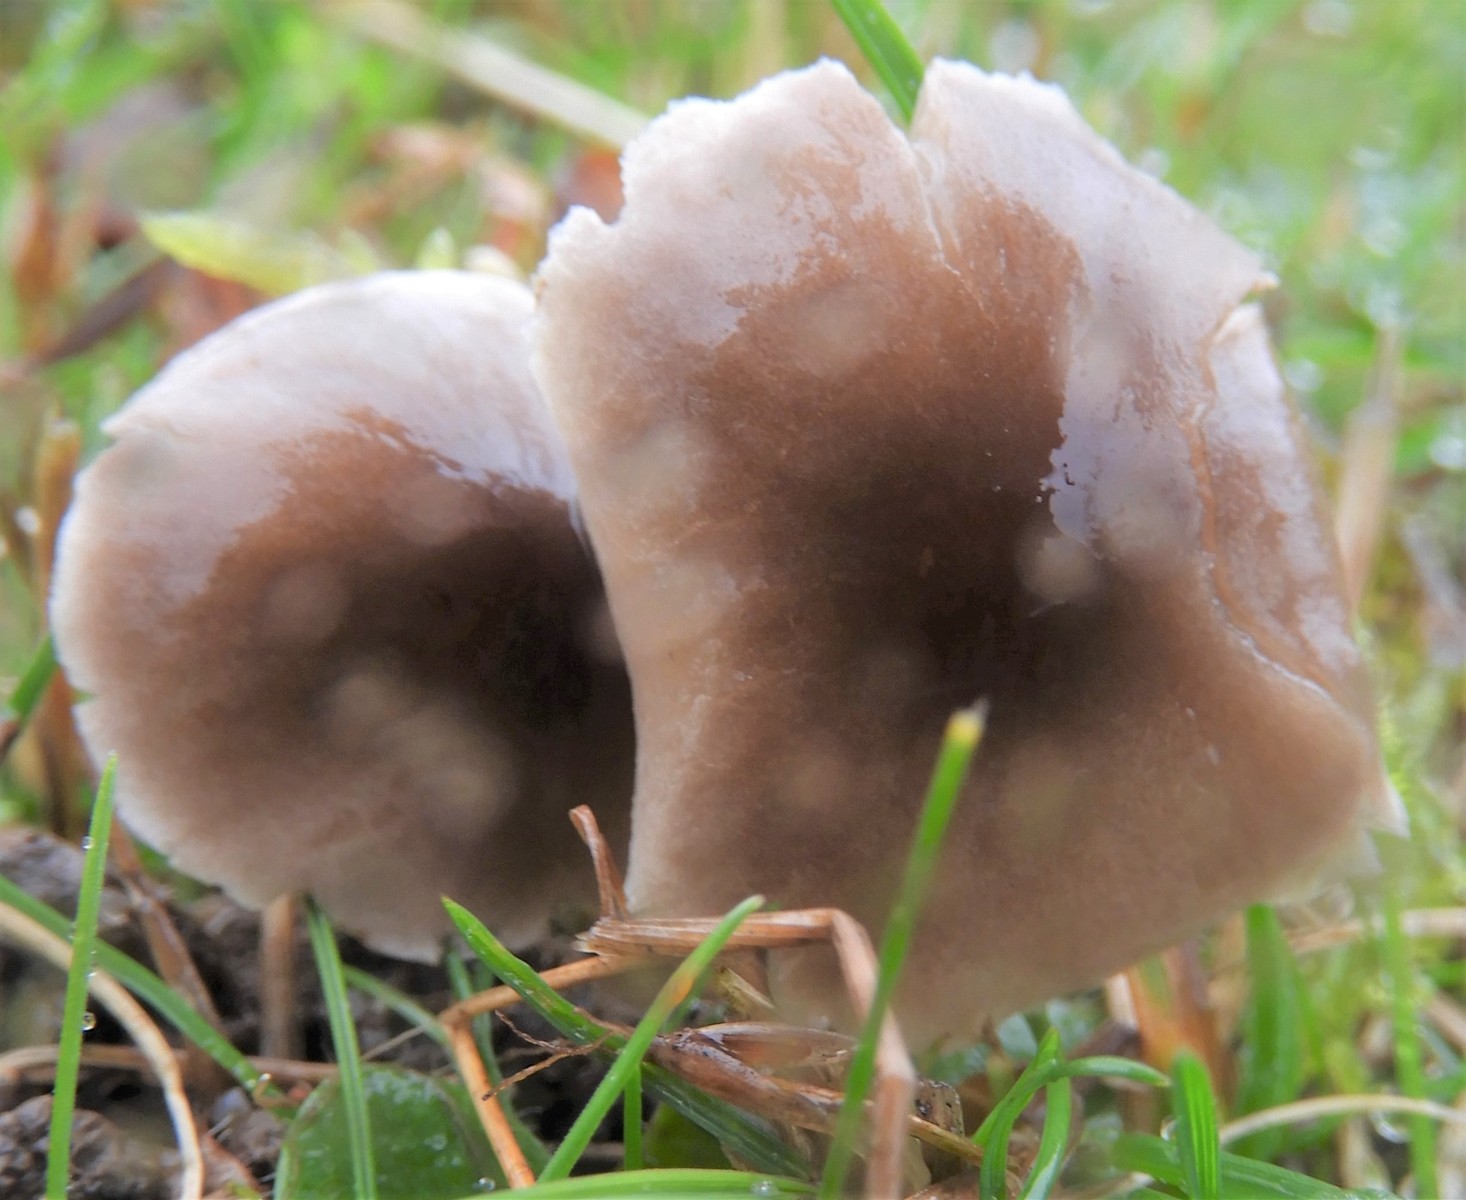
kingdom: Fungi
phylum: Basidiomycota
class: Agaricomycetes
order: Agaricales
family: Tricholomataceae
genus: Dermoloma
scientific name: Dermoloma cuneifolium
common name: eng-nonnehat
